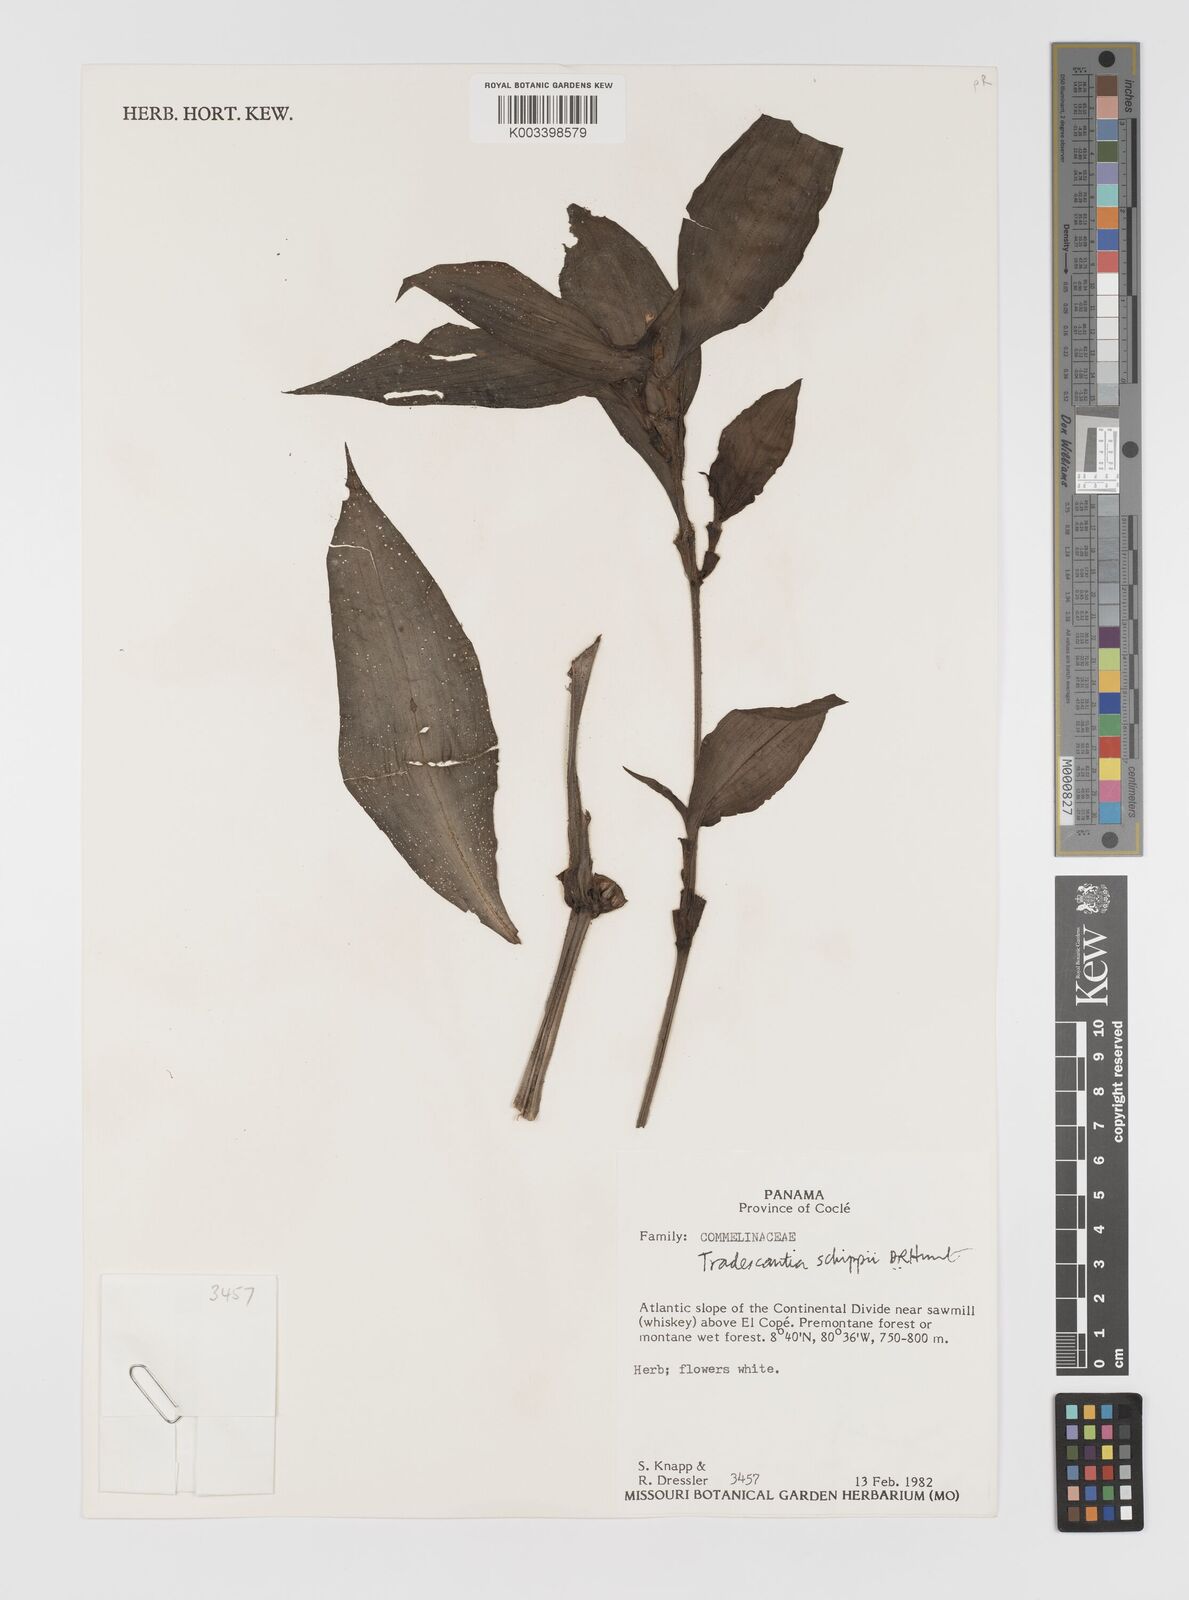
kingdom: Plantae
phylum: Tracheophyta
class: Liliopsida
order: Commelinales
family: Commelinaceae
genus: Tradescantia
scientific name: Tradescantia schippii
